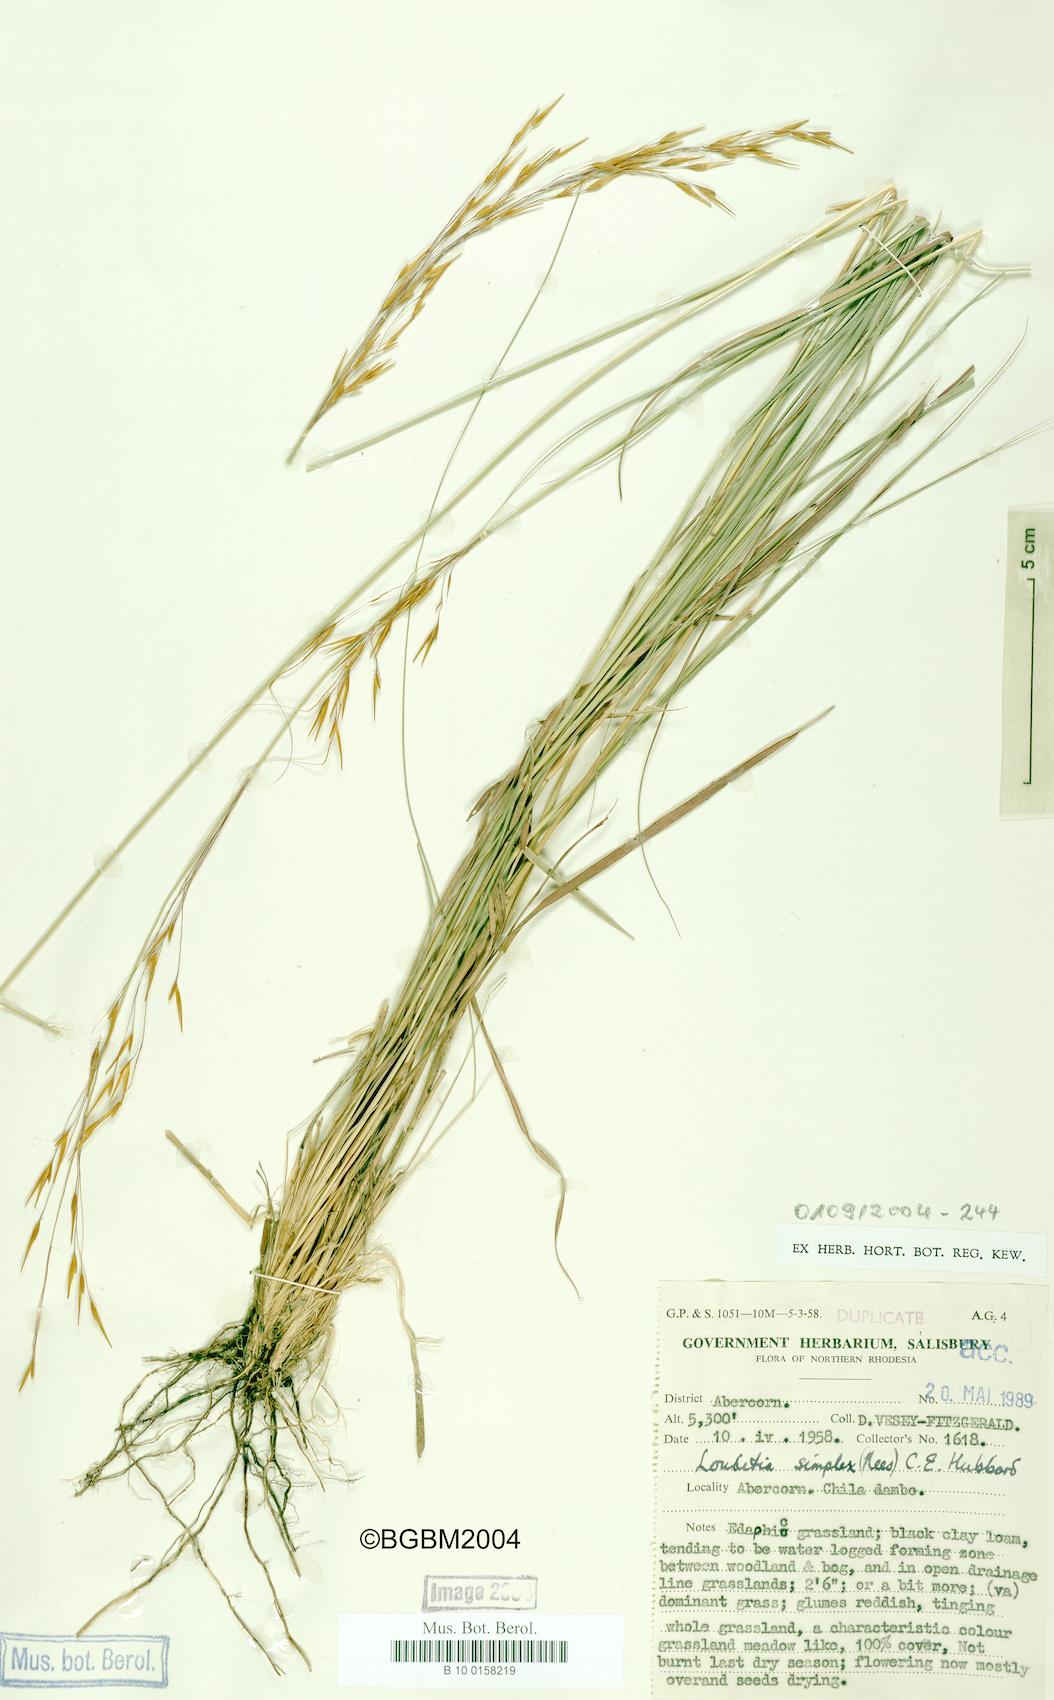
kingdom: Plantae
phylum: Tracheophyta
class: Liliopsida
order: Poales
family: Poaceae
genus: Loudetia
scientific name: Loudetia simplex
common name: Common russet grass
